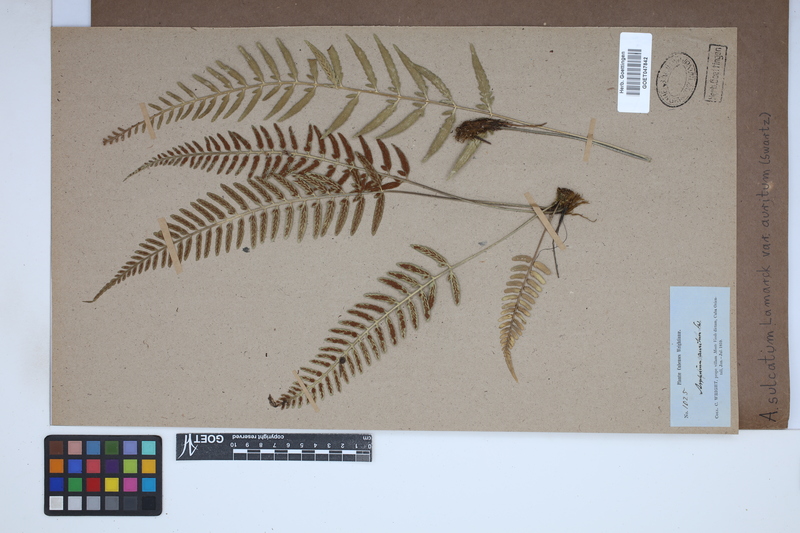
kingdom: Plantae
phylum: Tracheophyta
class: Polypodiopsida
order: Polypodiales
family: Aspleniaceae
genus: Asplenium
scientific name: Asplenium auritum
